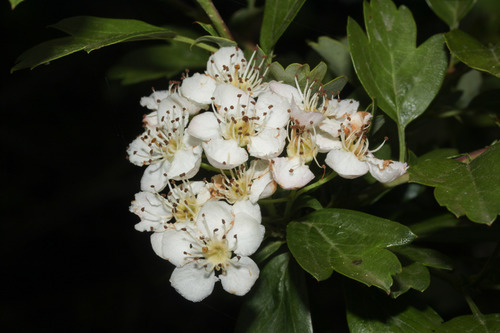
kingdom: Plantae
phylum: Tracheophyta
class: Magnoliopsida
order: Rosales
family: Rosaceae
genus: Crataegus
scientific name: Crataegus monogyna
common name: Hawthorn
